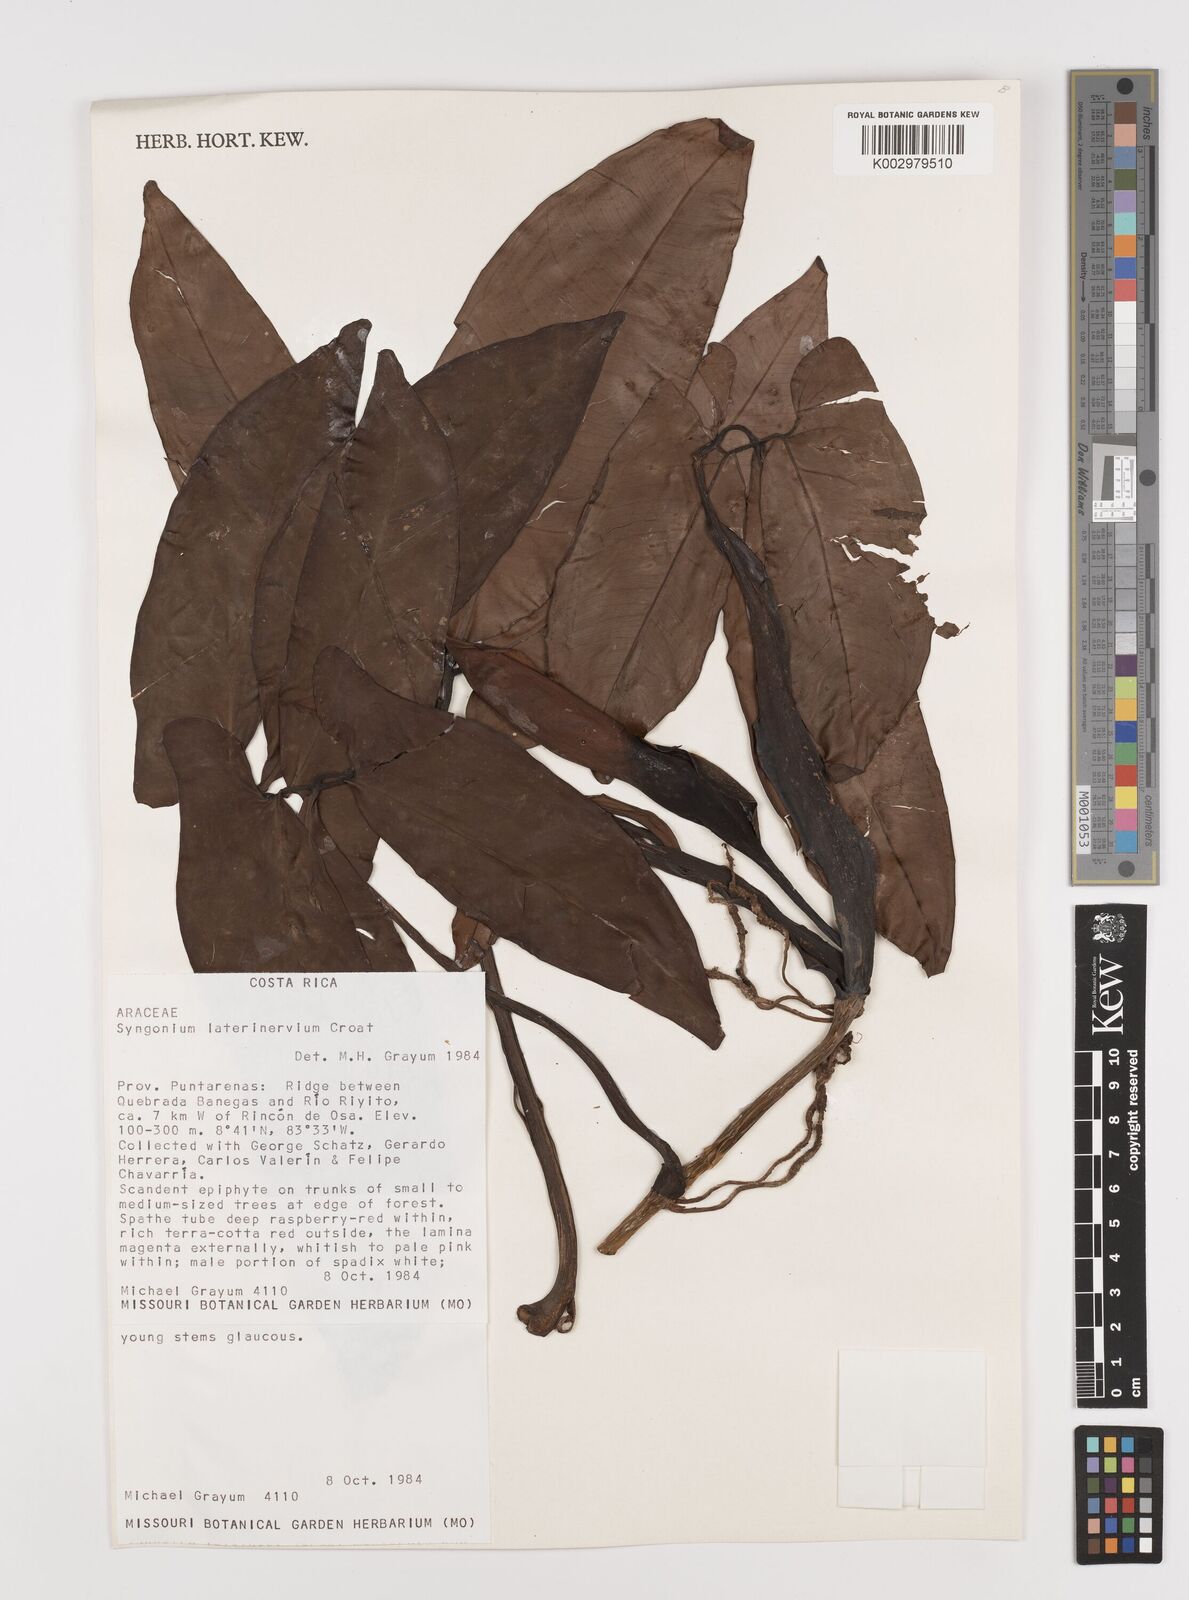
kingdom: Plantae
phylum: Tracheophyta
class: Liliopsida
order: Alismatales
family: Araceae
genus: Syngonium
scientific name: Syngonium laterinervium
